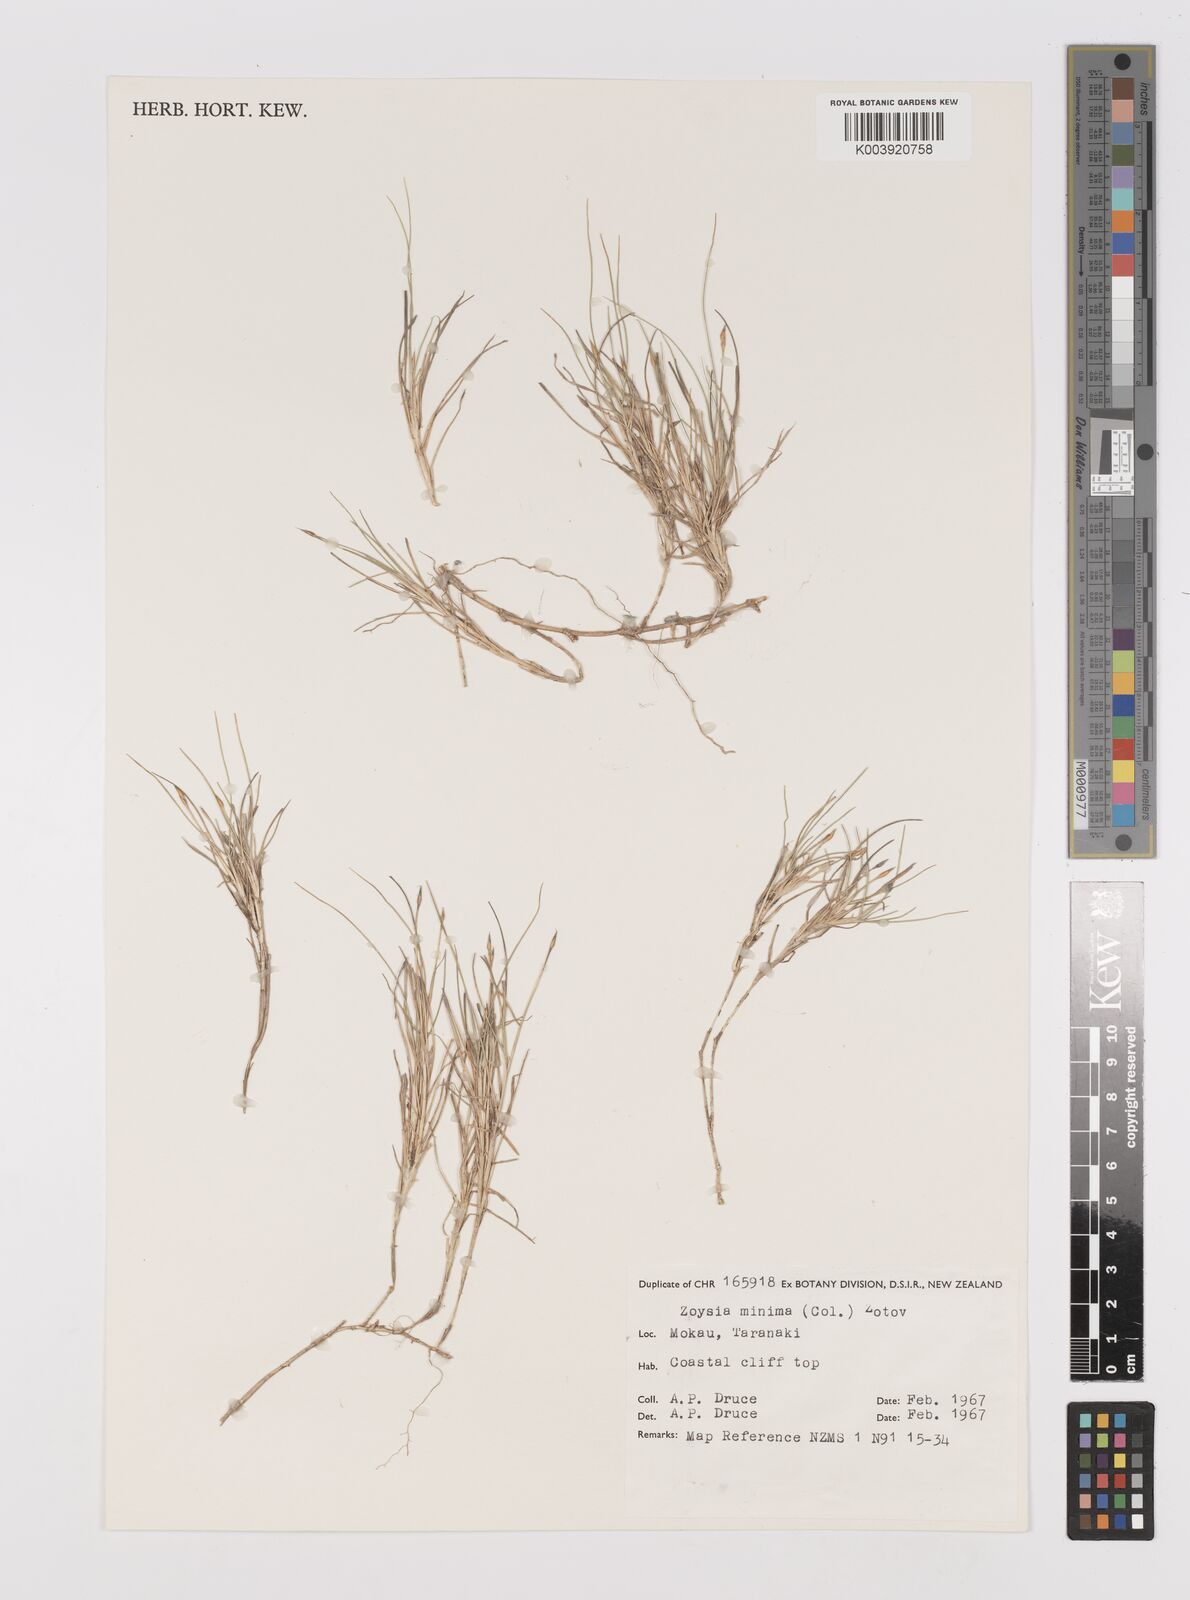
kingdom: Plantae
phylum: Tracheophyta
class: Liliopsida
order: Poales
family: Poaceae
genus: Zoysia
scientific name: Zoysia minima
